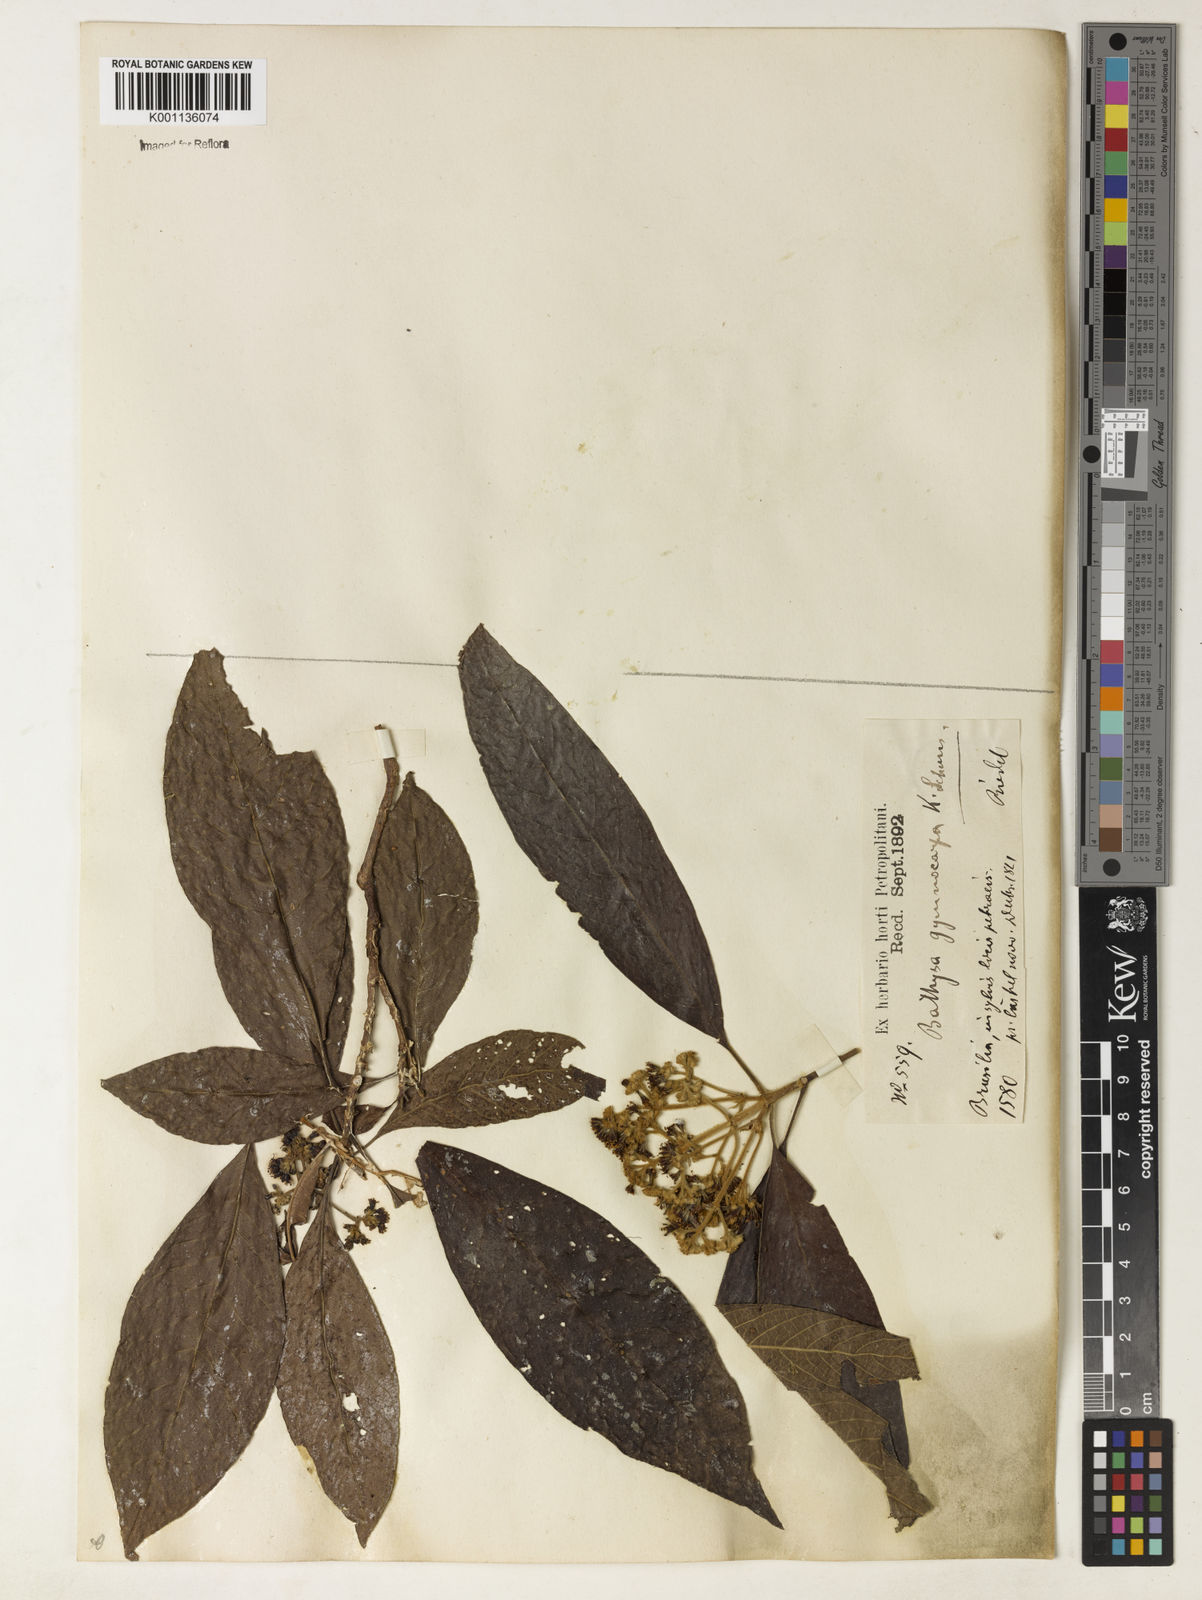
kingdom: Plantae
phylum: Tracheophyta
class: Magnoliopsida
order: Gentianales
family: Rubiaceae
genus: Bathysa
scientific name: Bathysa gymnocarpa
